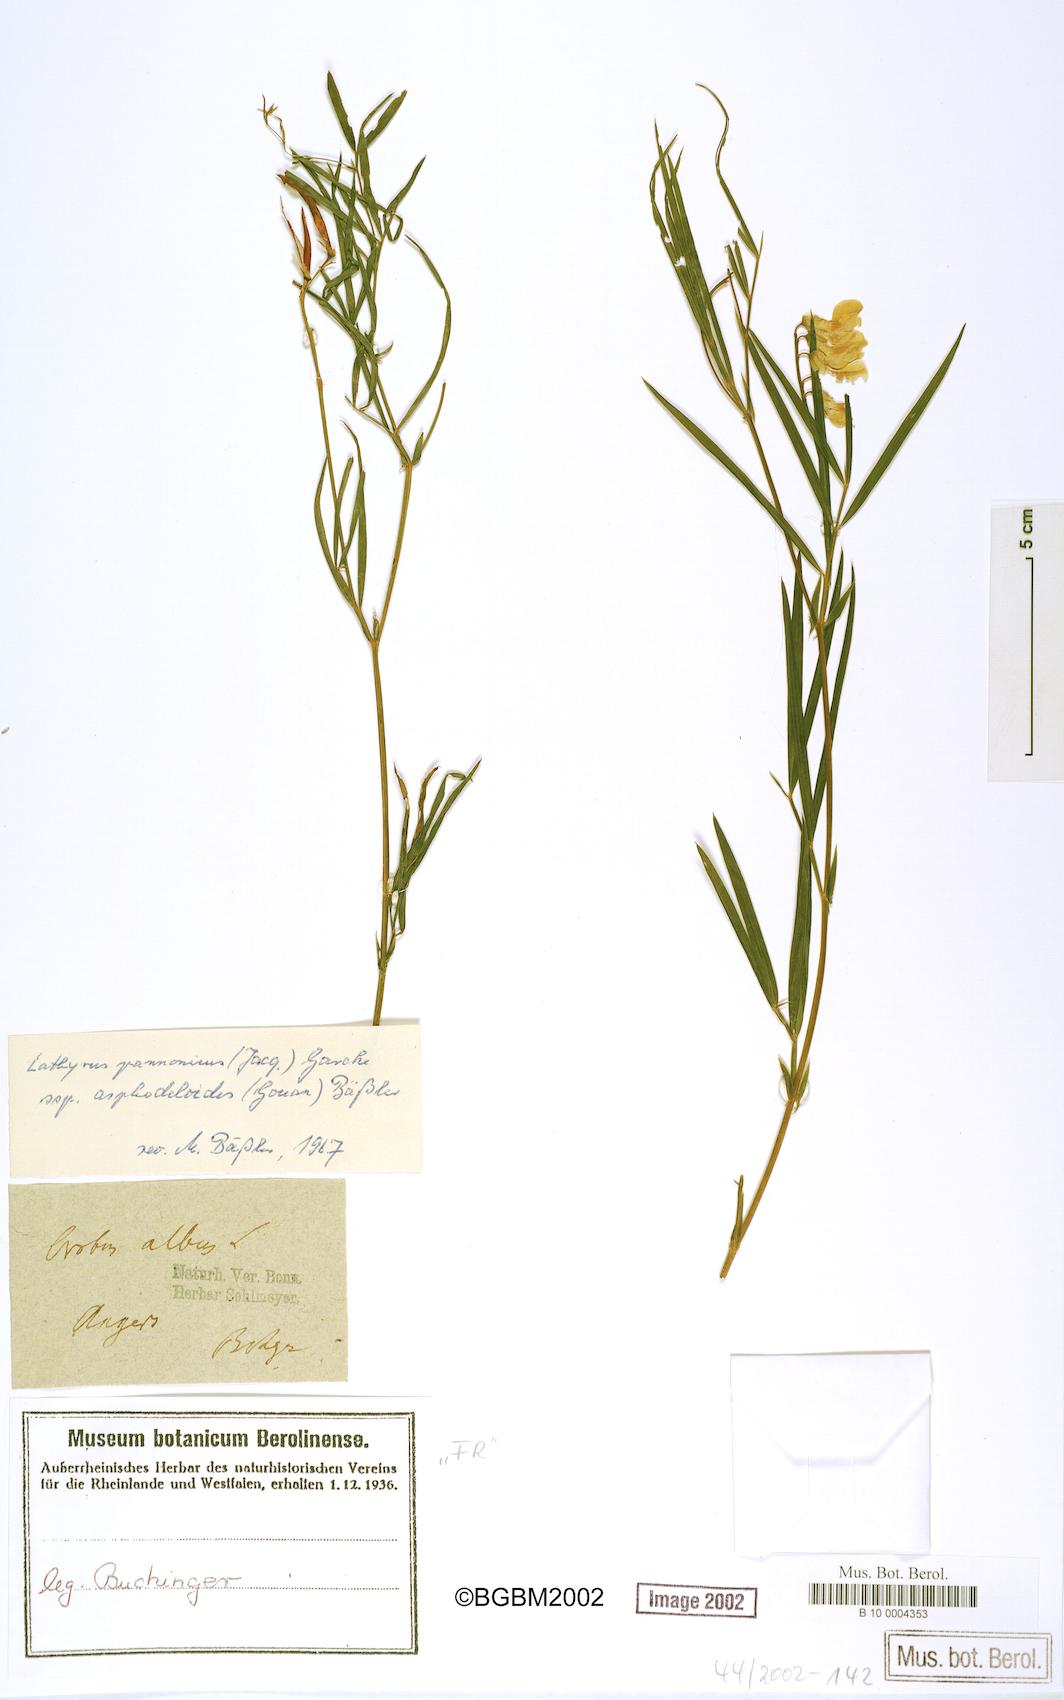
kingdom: Plantae
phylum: Tracheophyta
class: Magnoliopsida
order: Fabales
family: Fabaceae
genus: Lathyrus
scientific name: Lathyrus pannonicus
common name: Pea
